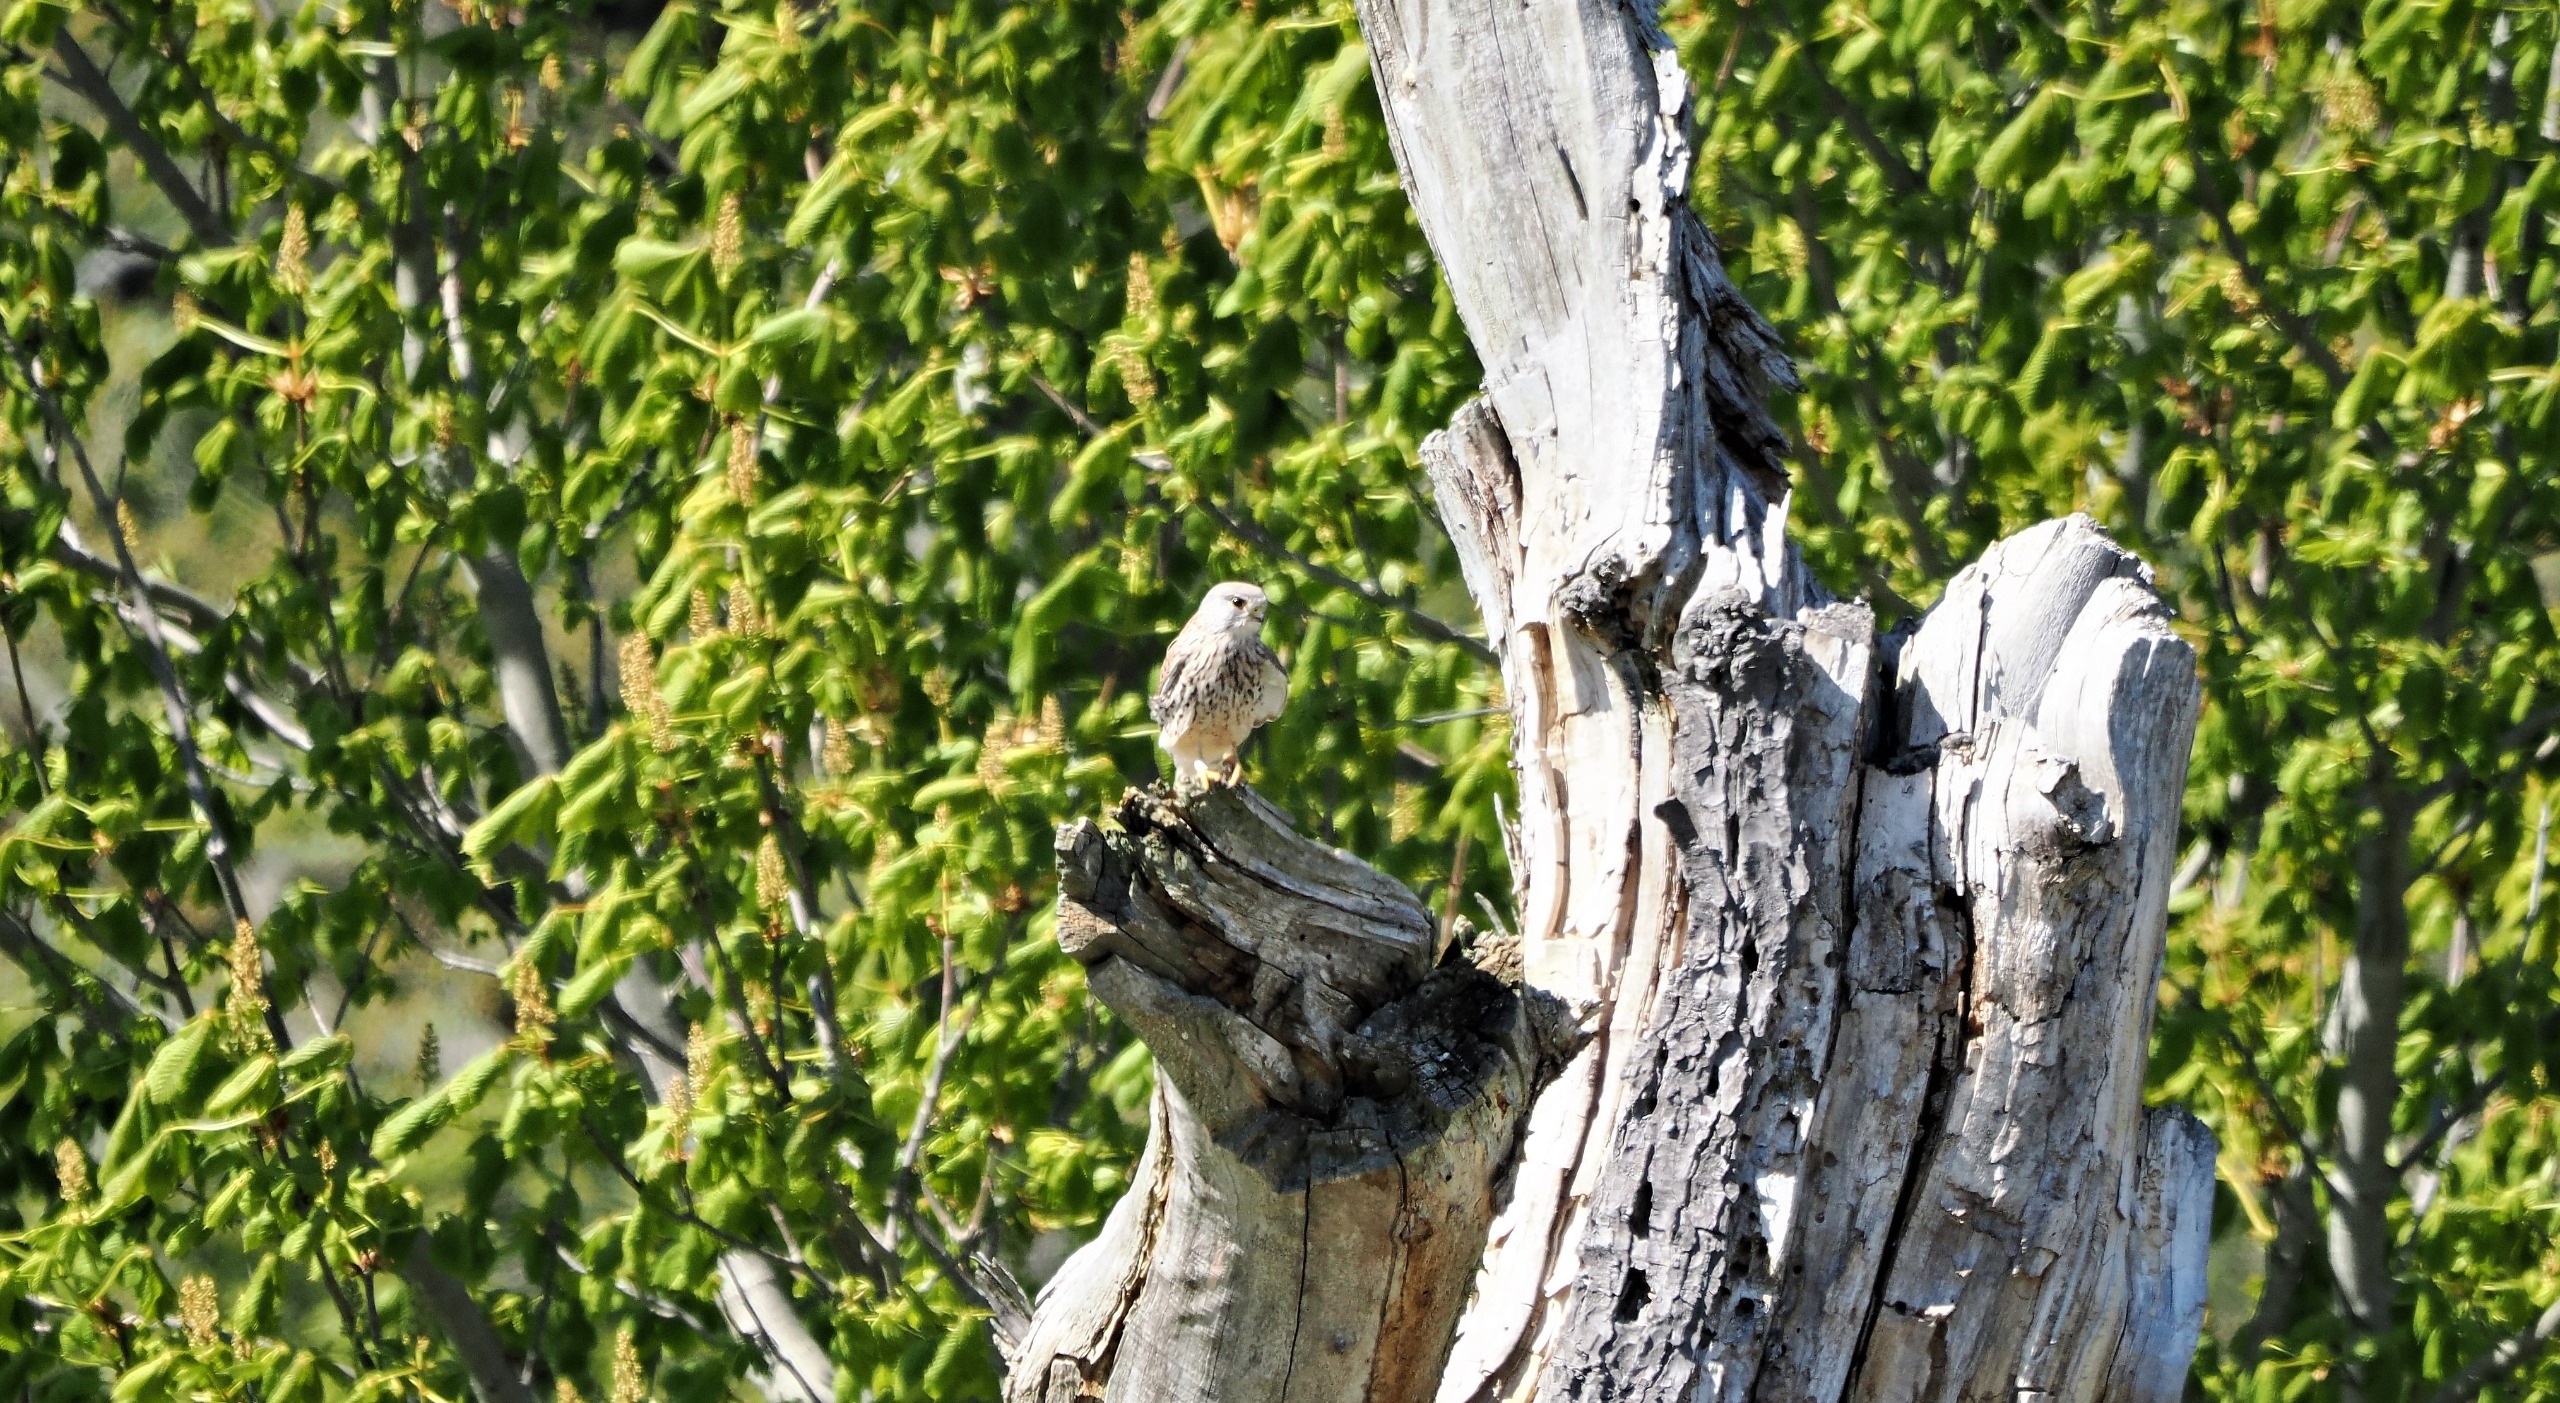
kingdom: Animalia
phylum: Chordata
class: Aves
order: Falconiformes
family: Falconidae
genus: Falco
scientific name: Falco tinnunculus
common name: Tårnfalk
